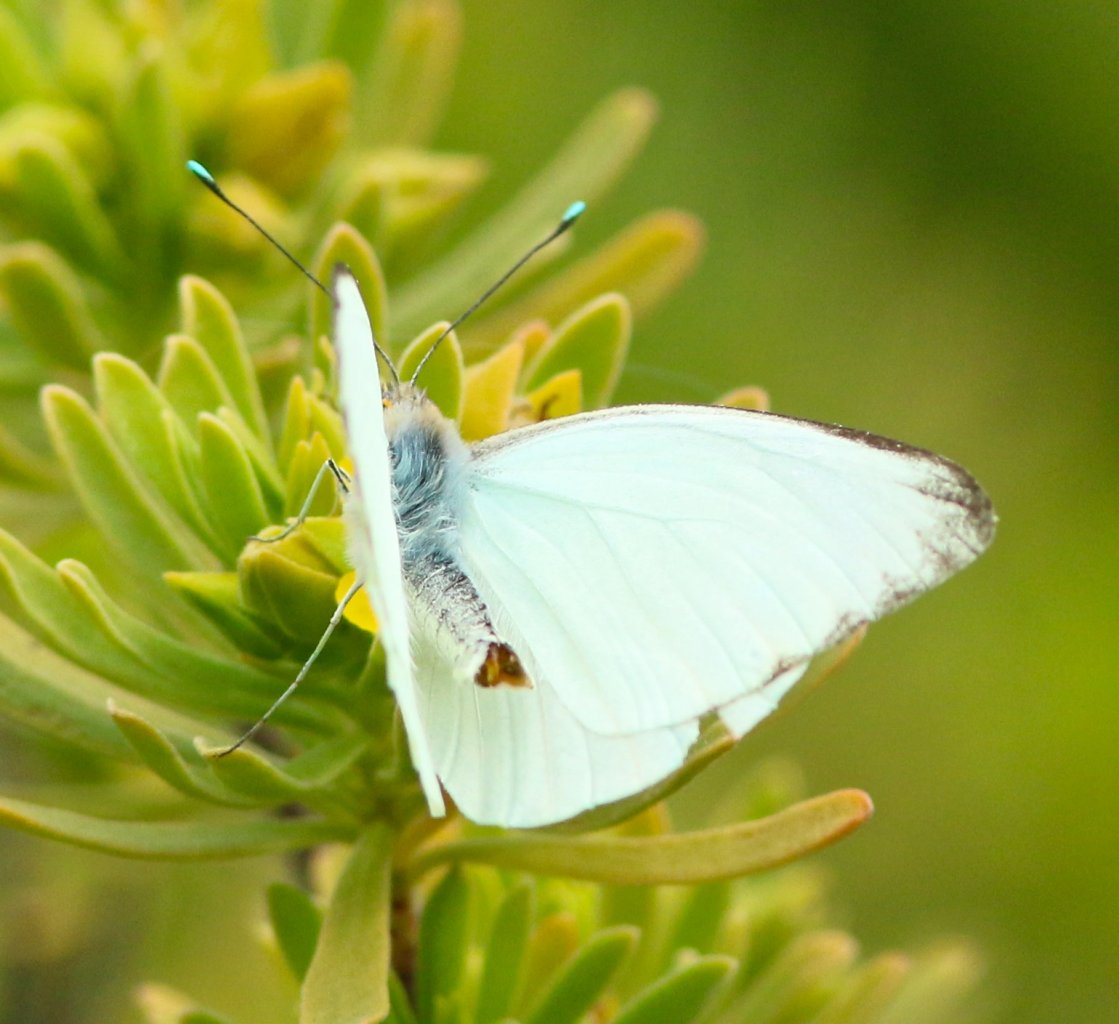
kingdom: Animalia
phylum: Arthropoda
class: Insecta
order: Lepidoptera
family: Pieridae
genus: Ascia
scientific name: Ascia monuste
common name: Great Southern White
